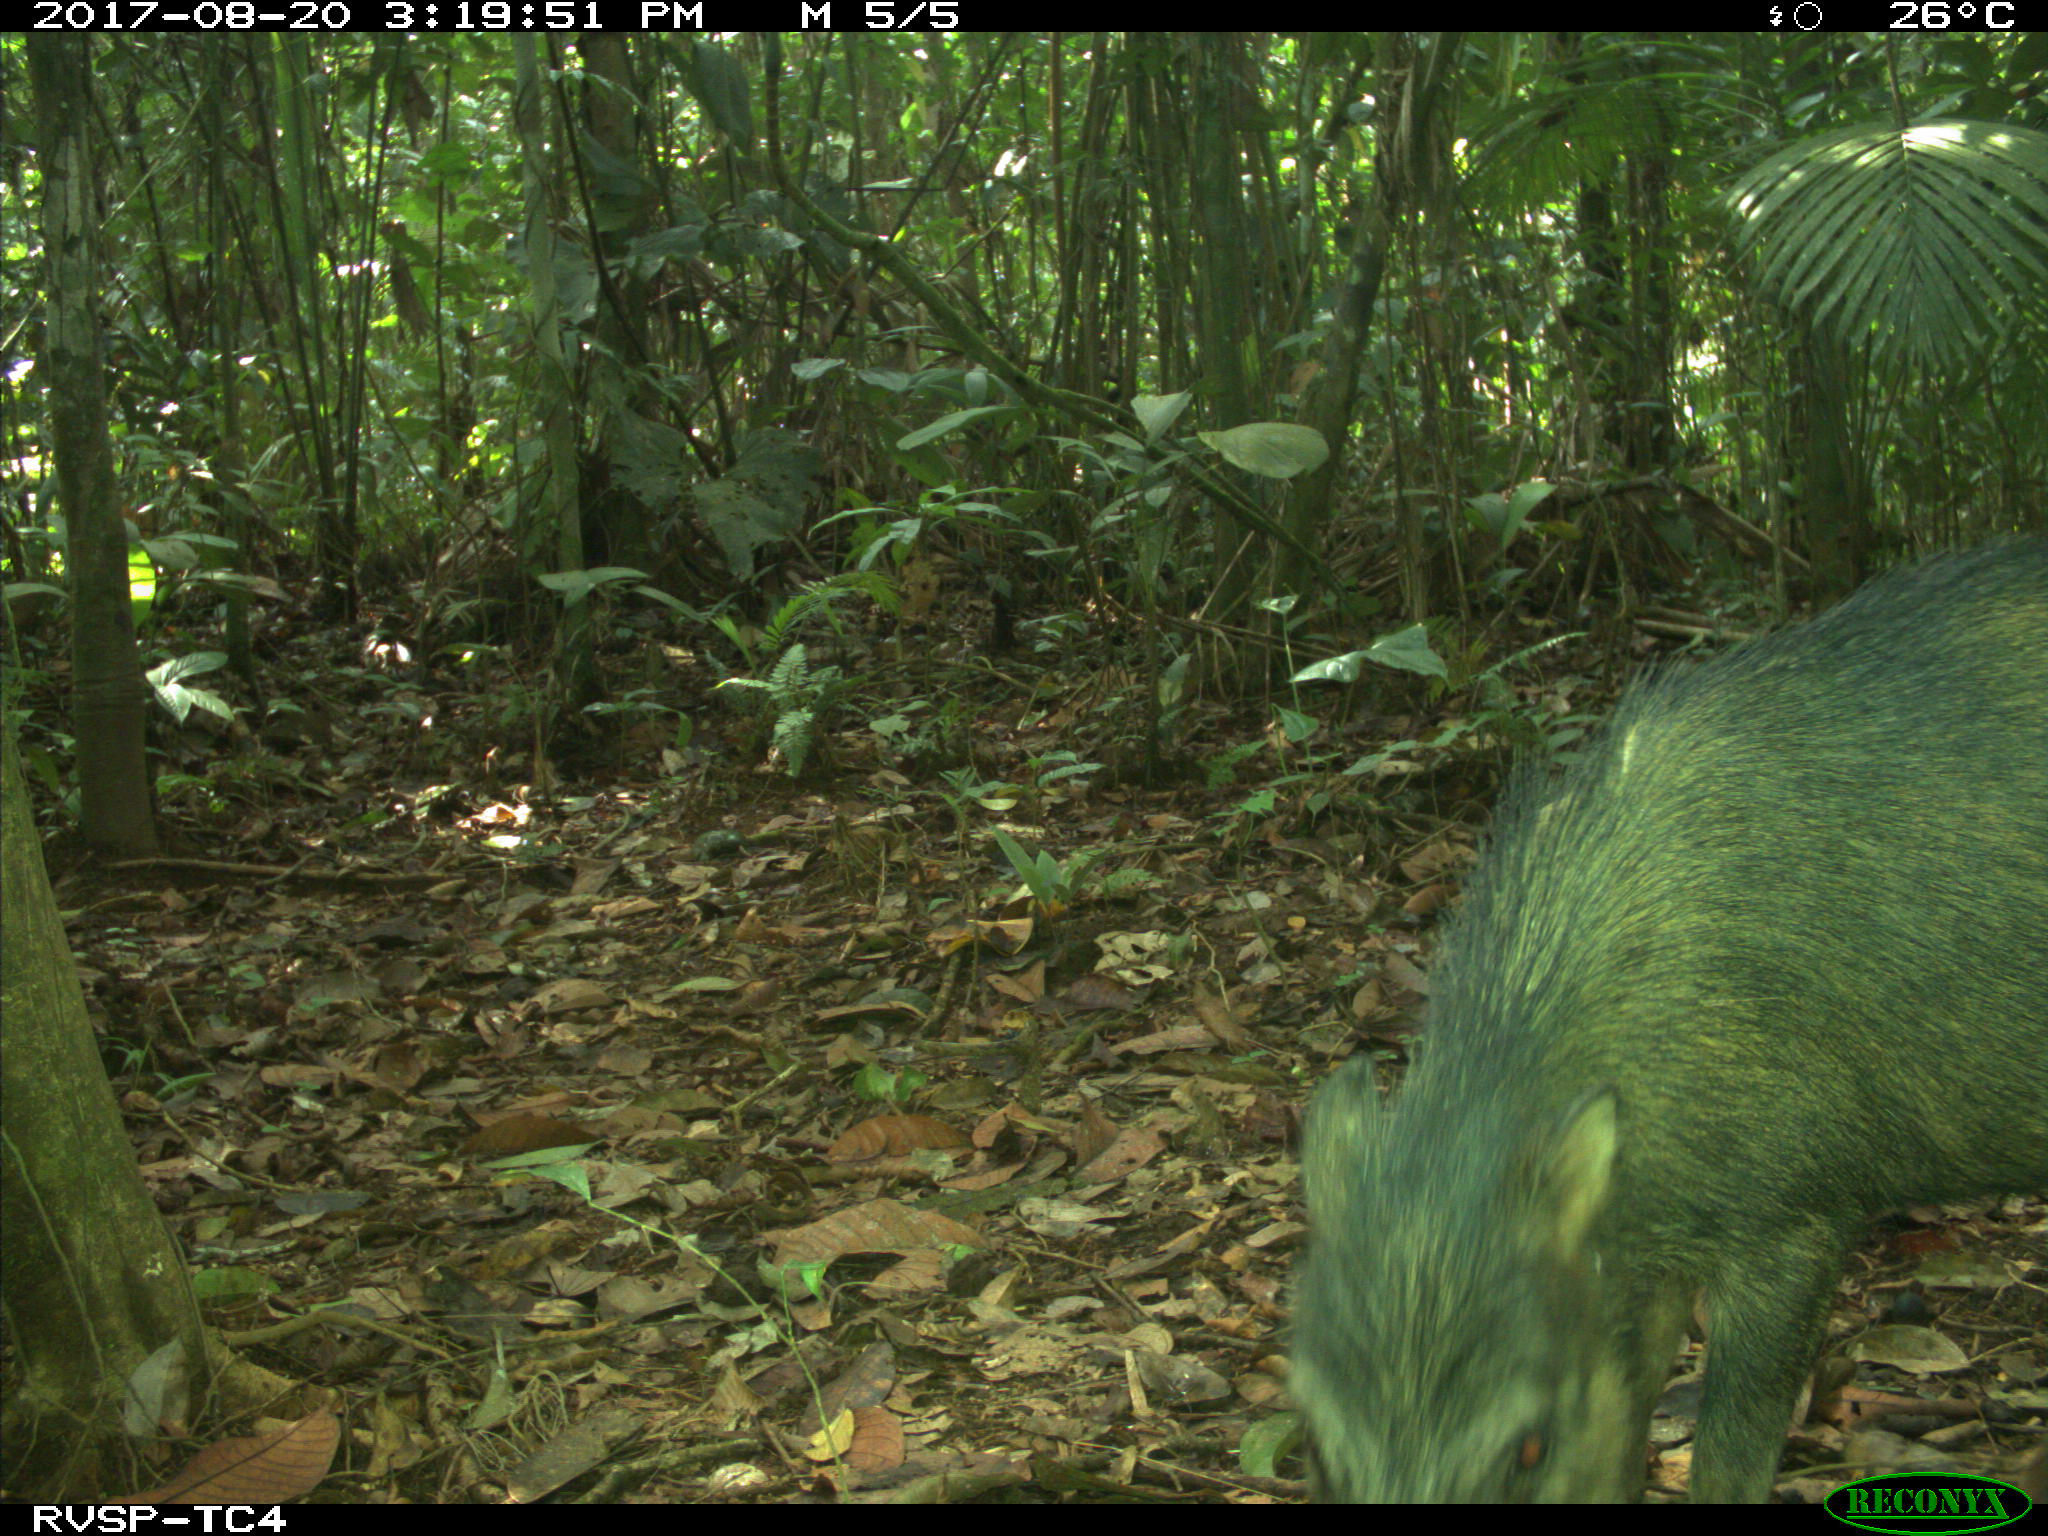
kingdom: Animalia
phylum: Chordata
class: Mammalia
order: Artiodactyla
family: Tayassuidae
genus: Tayassu
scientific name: Tayassu pecari
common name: White-lipped peccary
